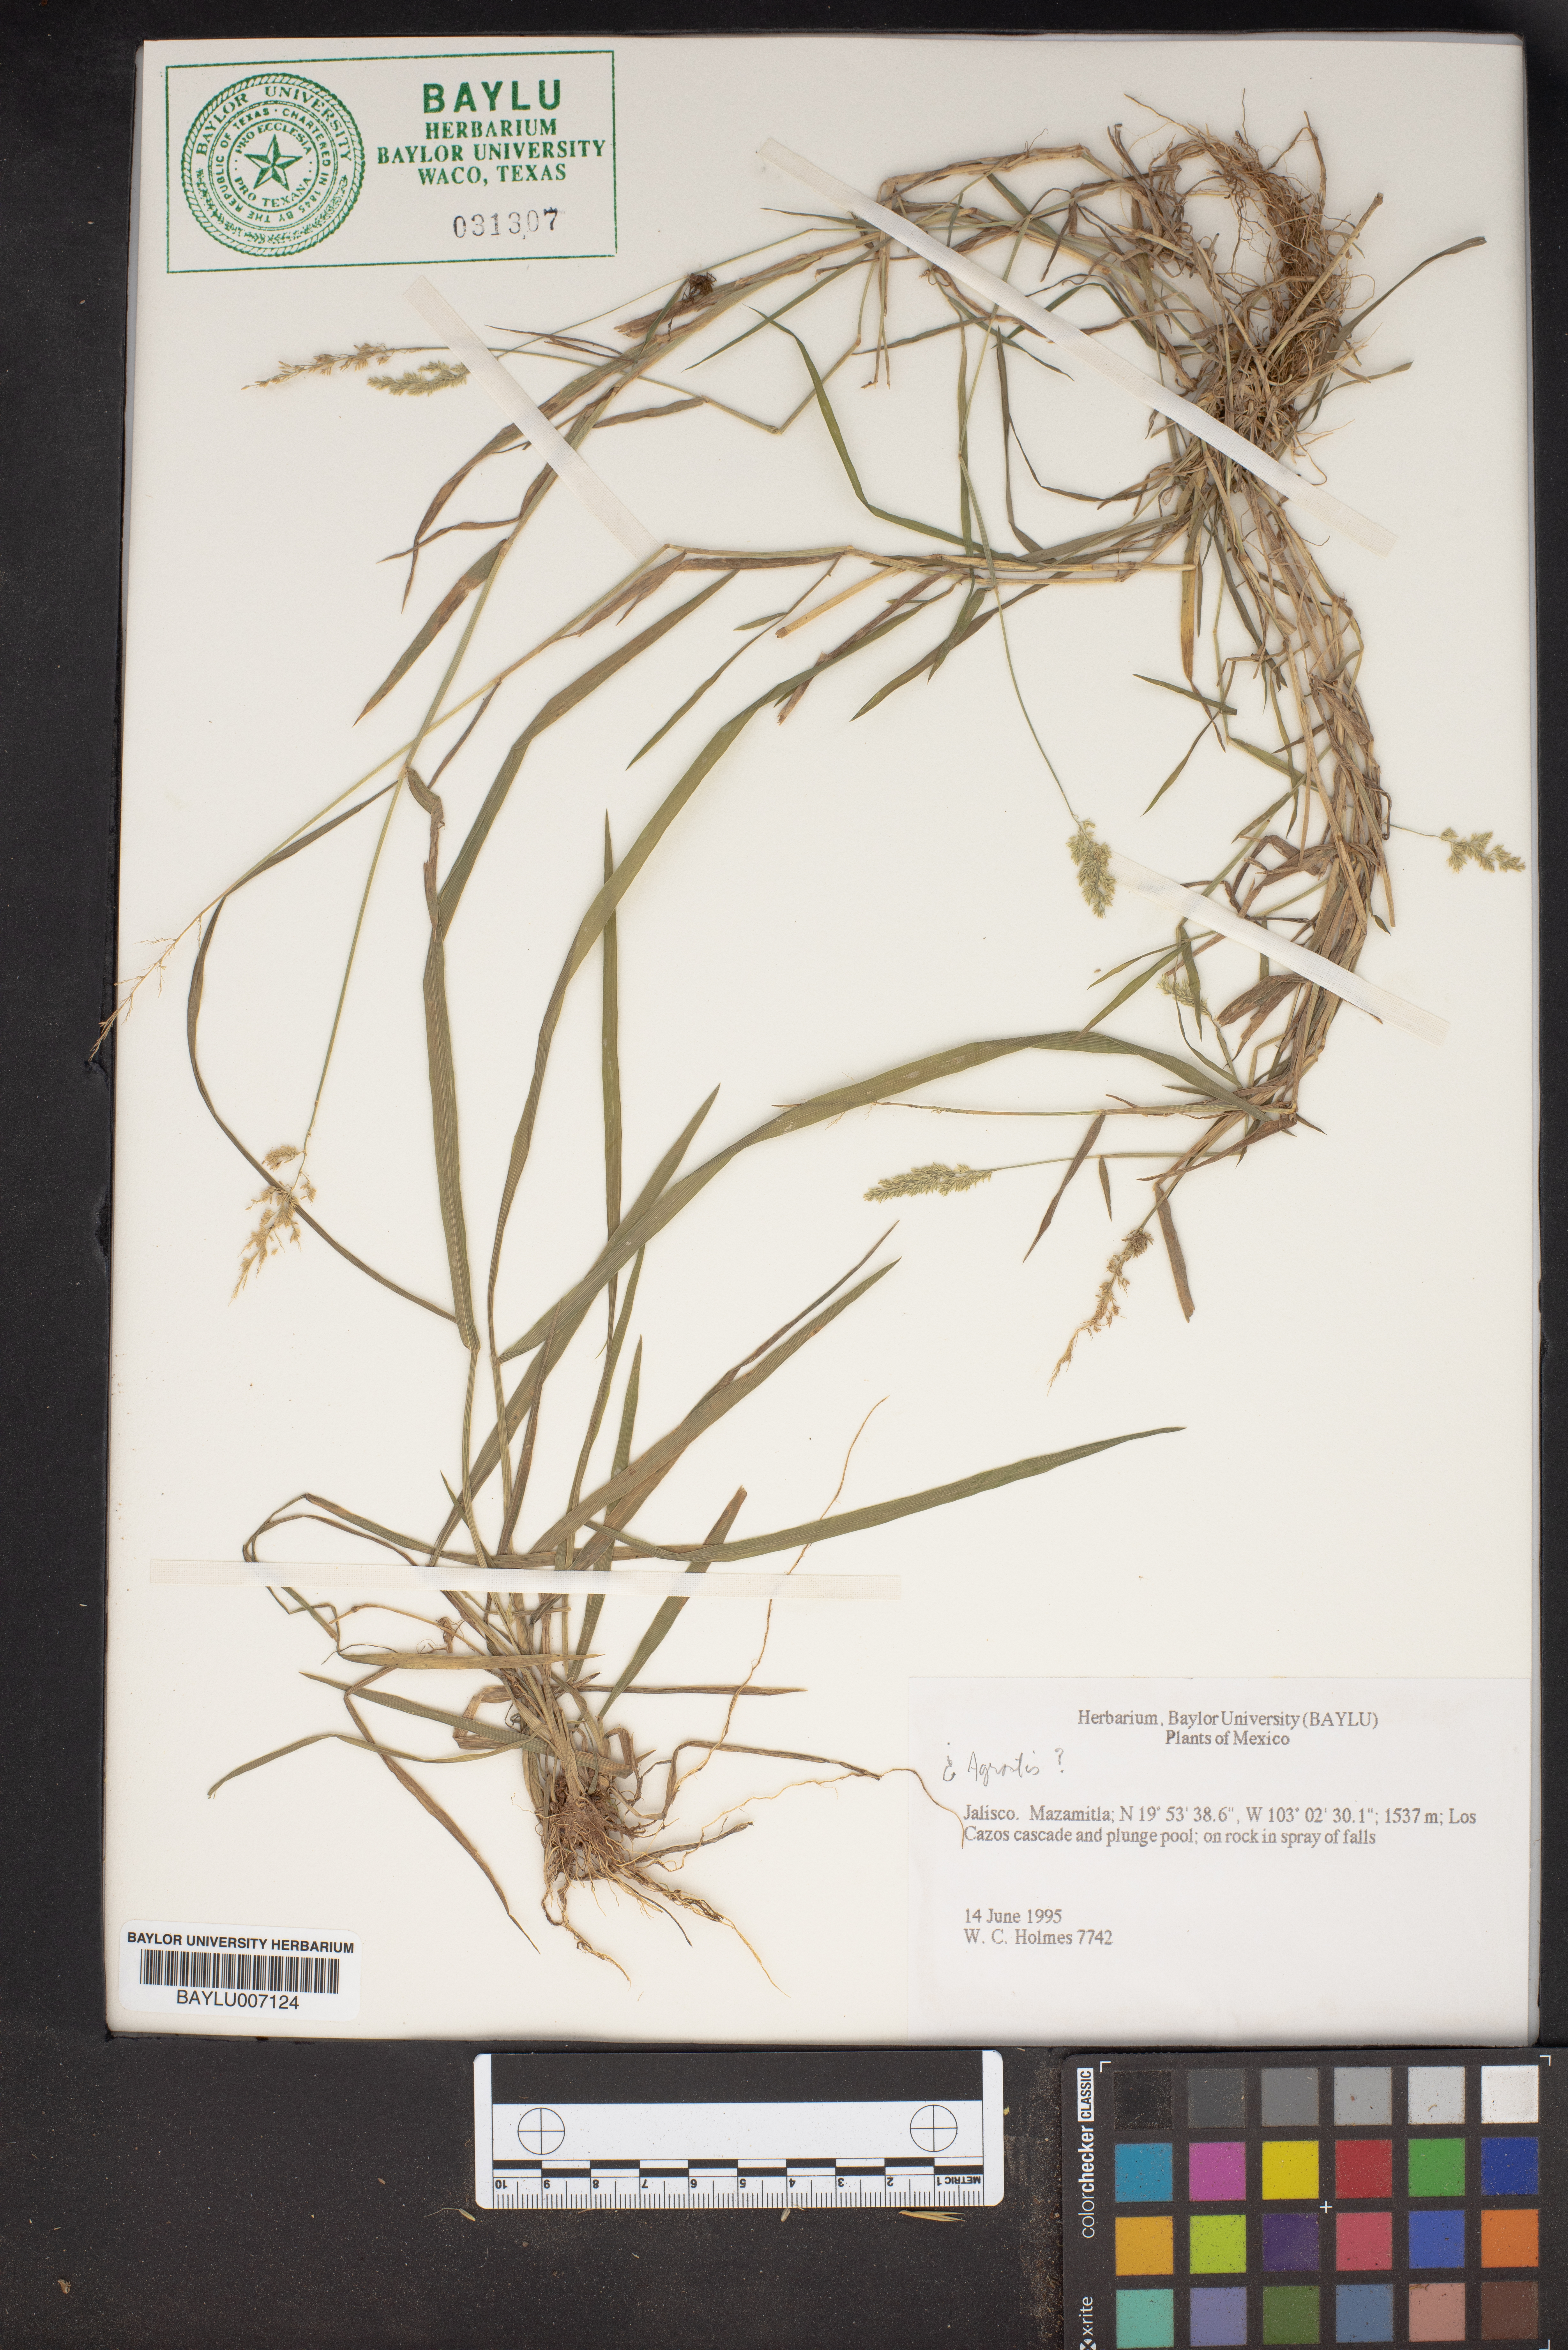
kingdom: Plantae
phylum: Tracheophyta
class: Liliopsida
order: Poales
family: Poaceae
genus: Agrostis
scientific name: Agrostis
